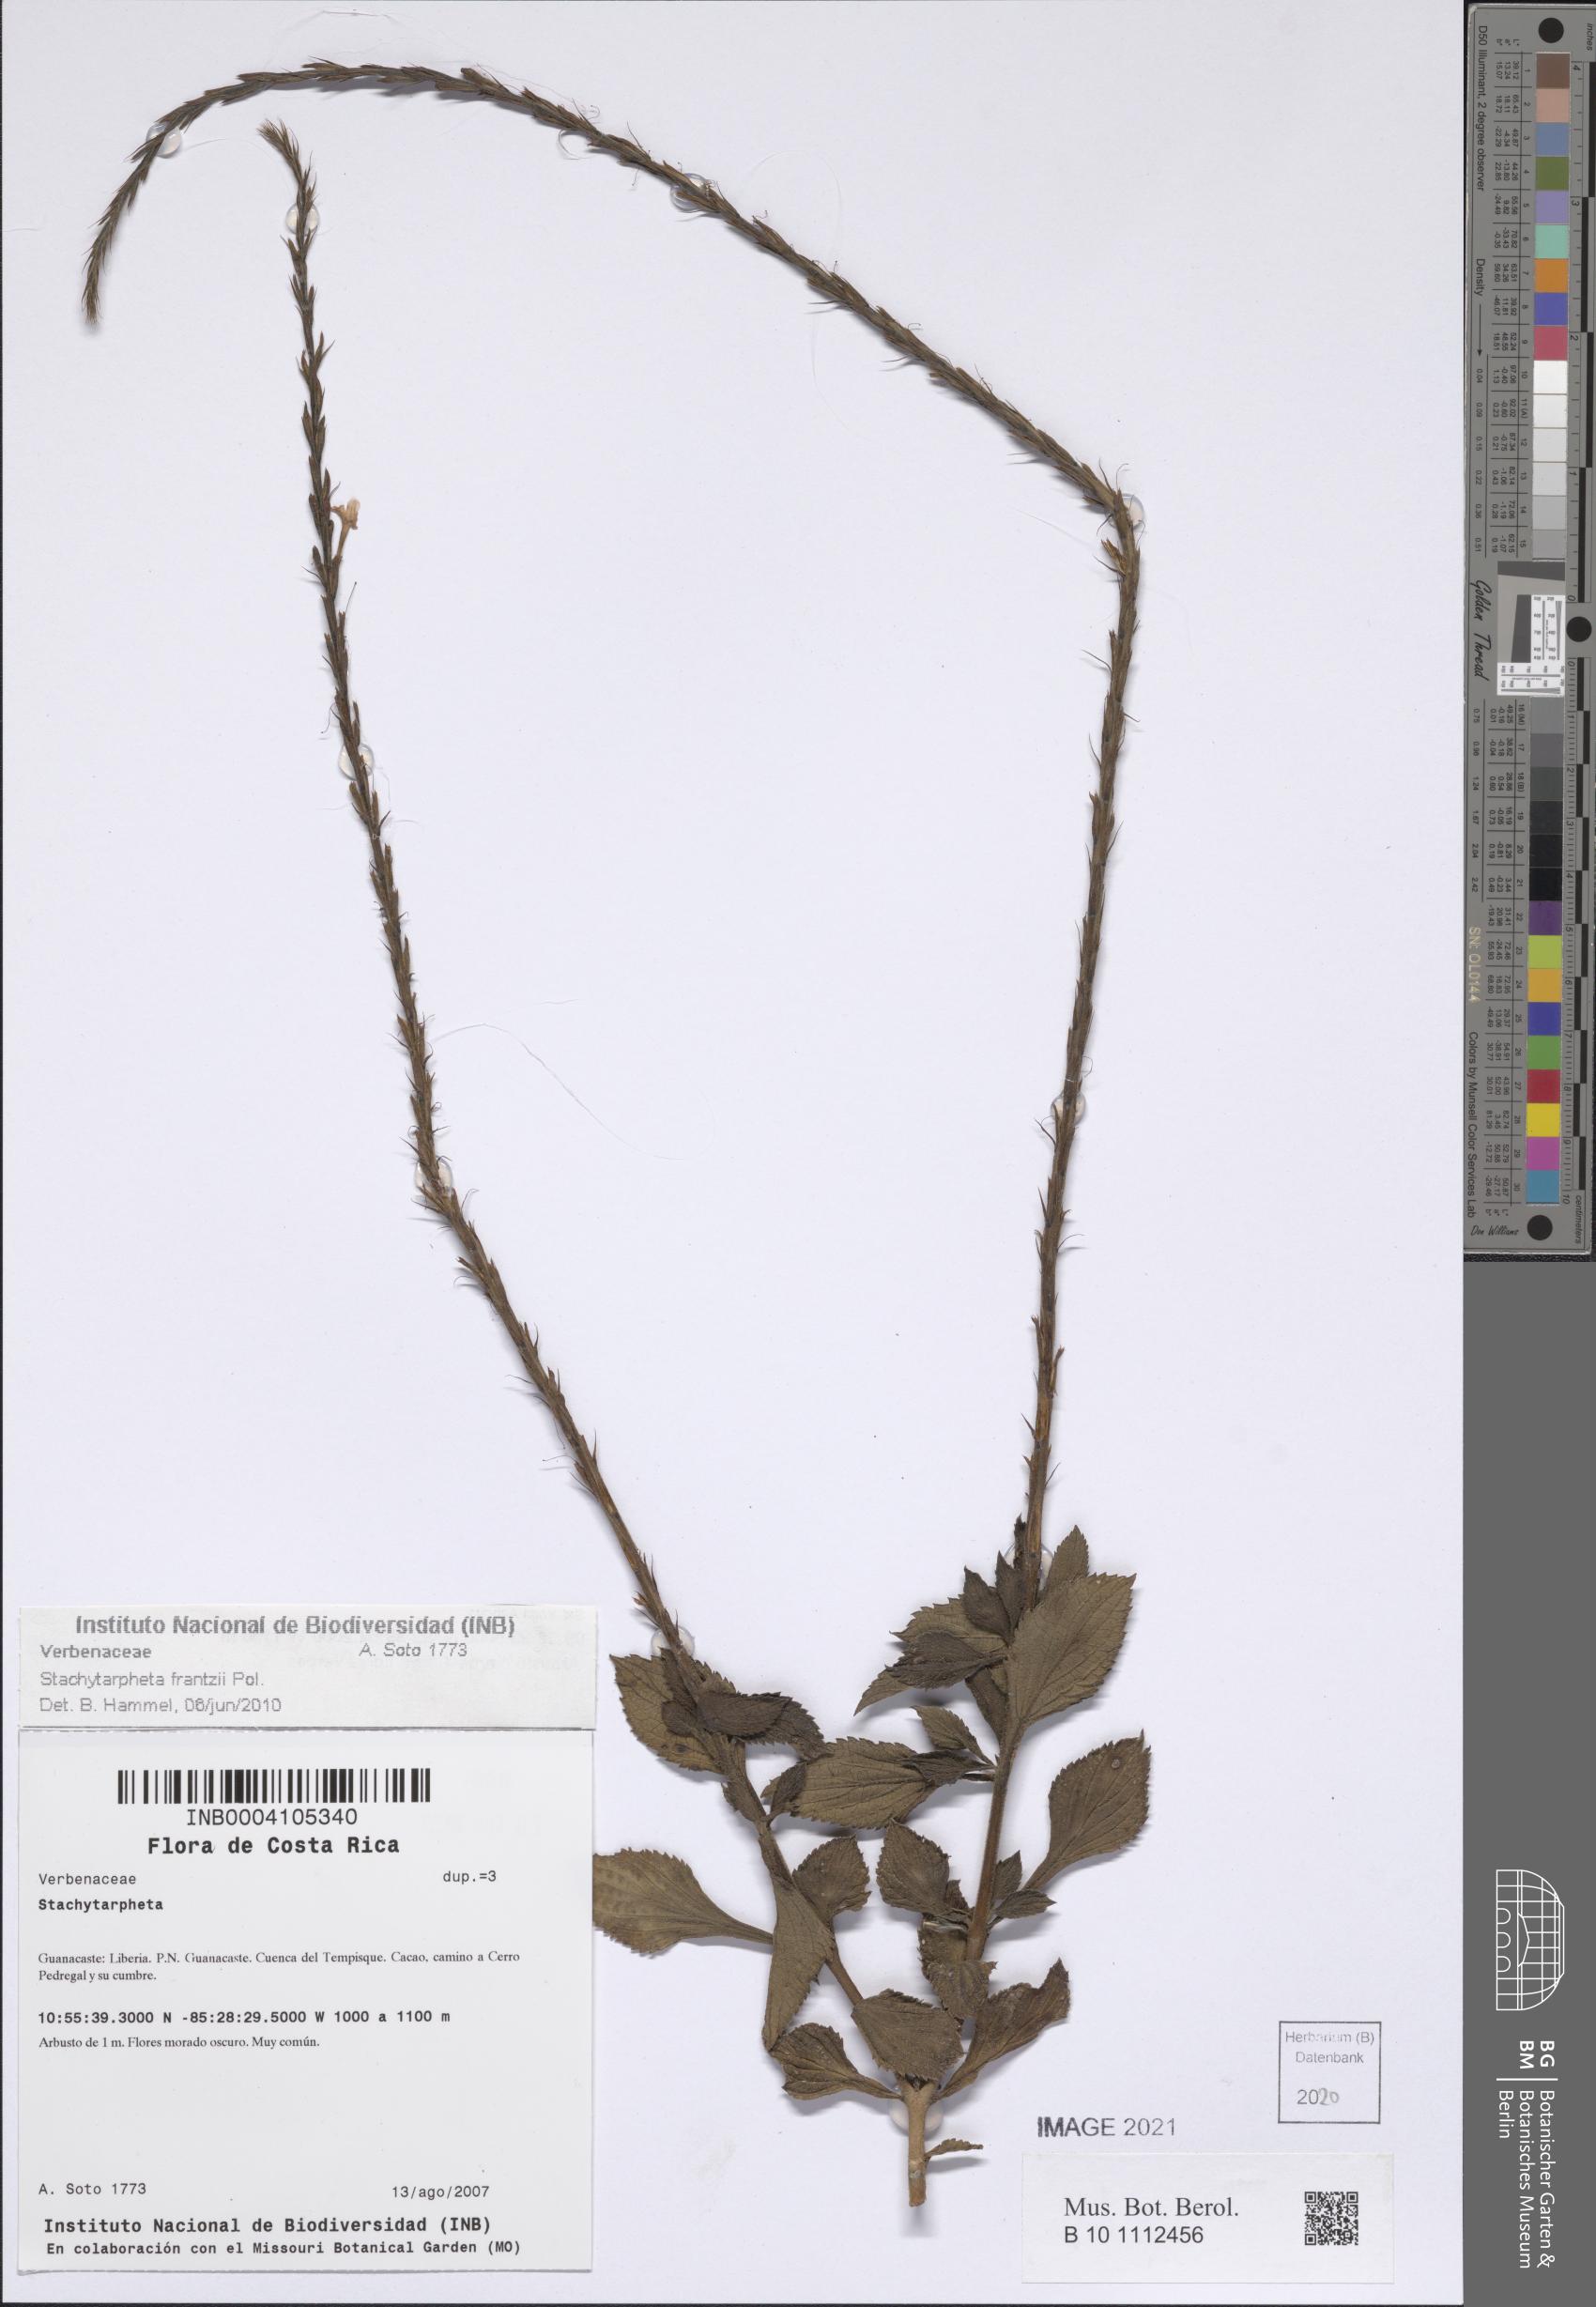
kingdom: Plantae
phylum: Tracheophyta
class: Magnoliopsida
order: Lamiales
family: Verbenaceae
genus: Stachytarpheta
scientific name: Stachytarpheta frantzii
